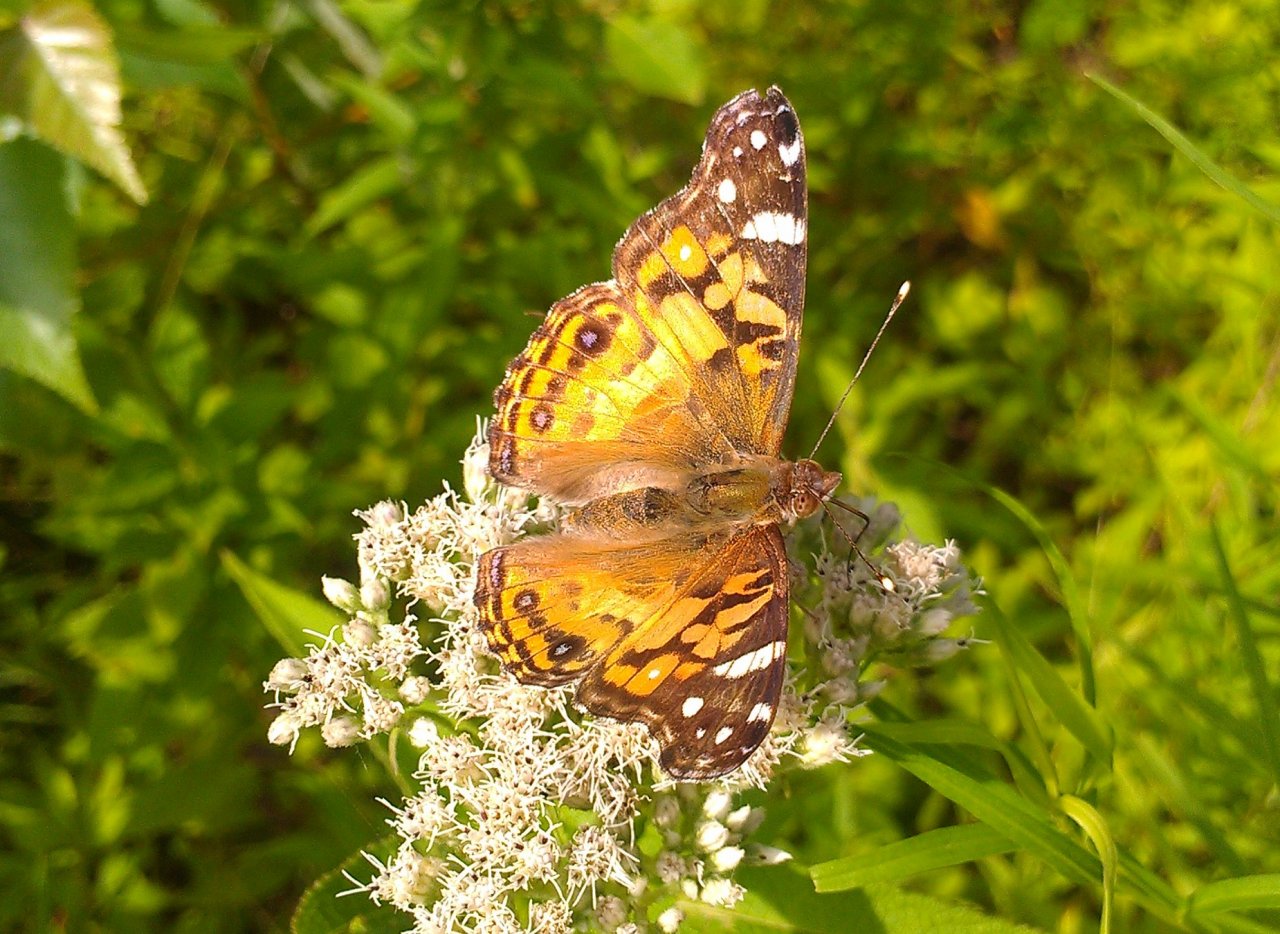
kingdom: Animalia
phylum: Arthropoda
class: Insecta
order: Lepidoptera
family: Nymphalidae
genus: Vanessa
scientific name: Vanessa virginiensis
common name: American Lady
